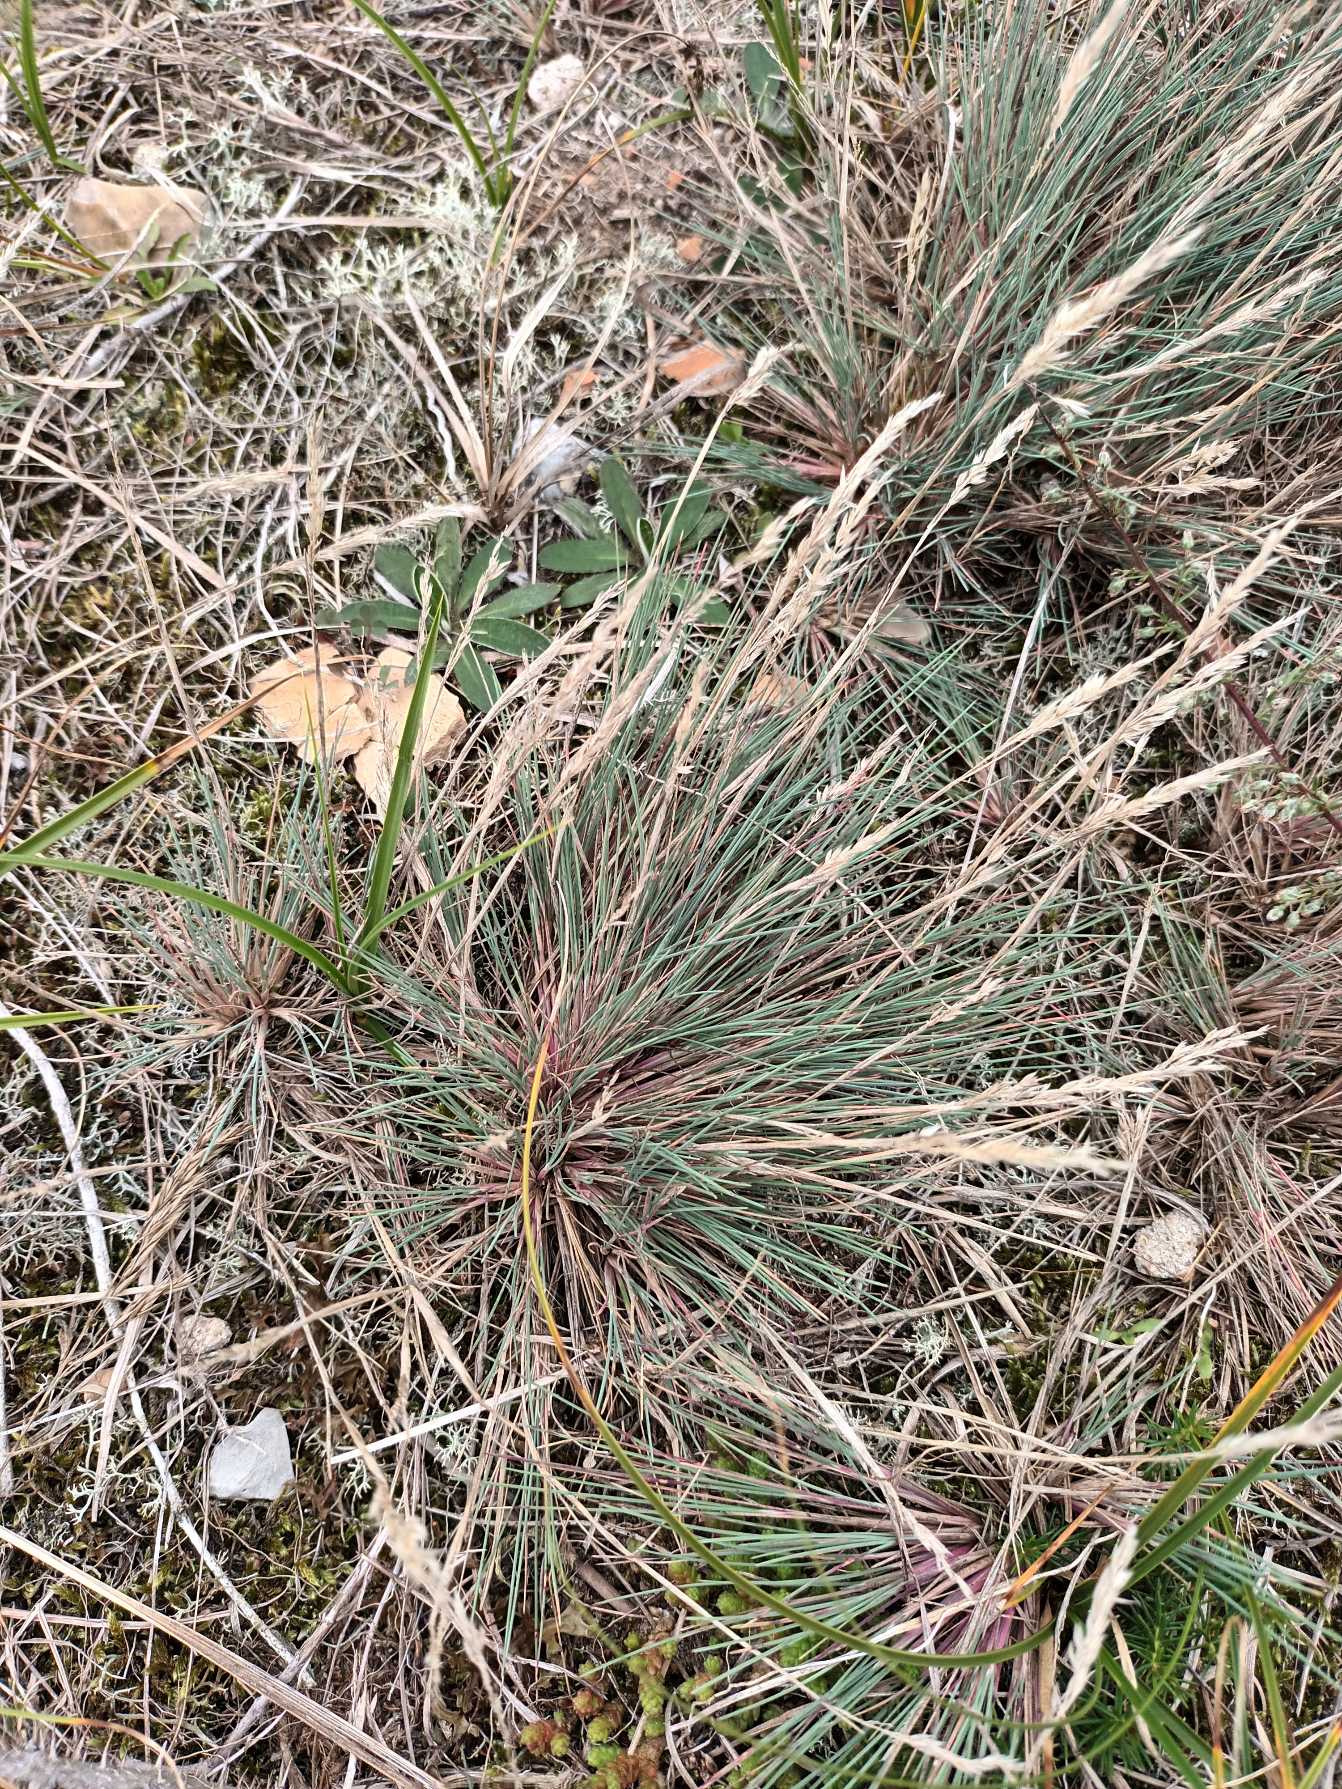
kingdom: Plantae
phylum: Tracheophyta
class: Liliopsida
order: Poales
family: Poaceae
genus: Corynephorus
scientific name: Corynephorus canescens
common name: Sandskæg
